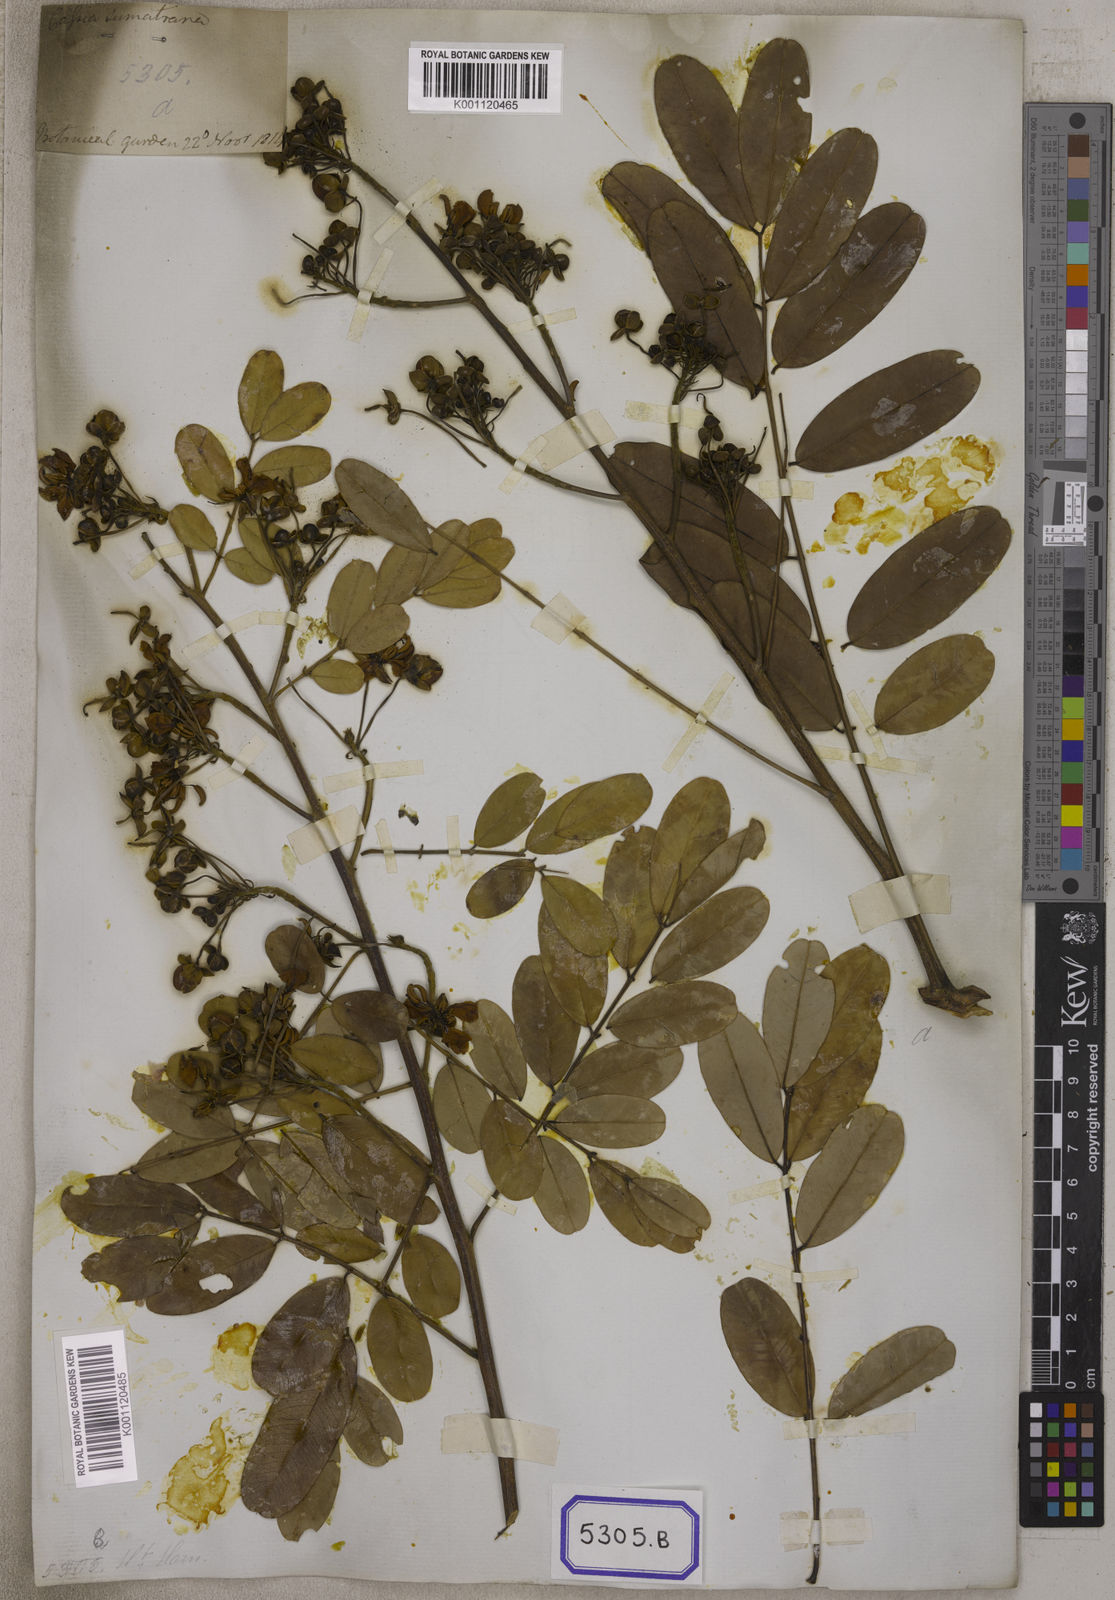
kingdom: Plantae
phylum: Tracheophyta
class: Magnoliopsida
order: Fabales
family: Fabaceae
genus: Cassia
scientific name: Cassia
